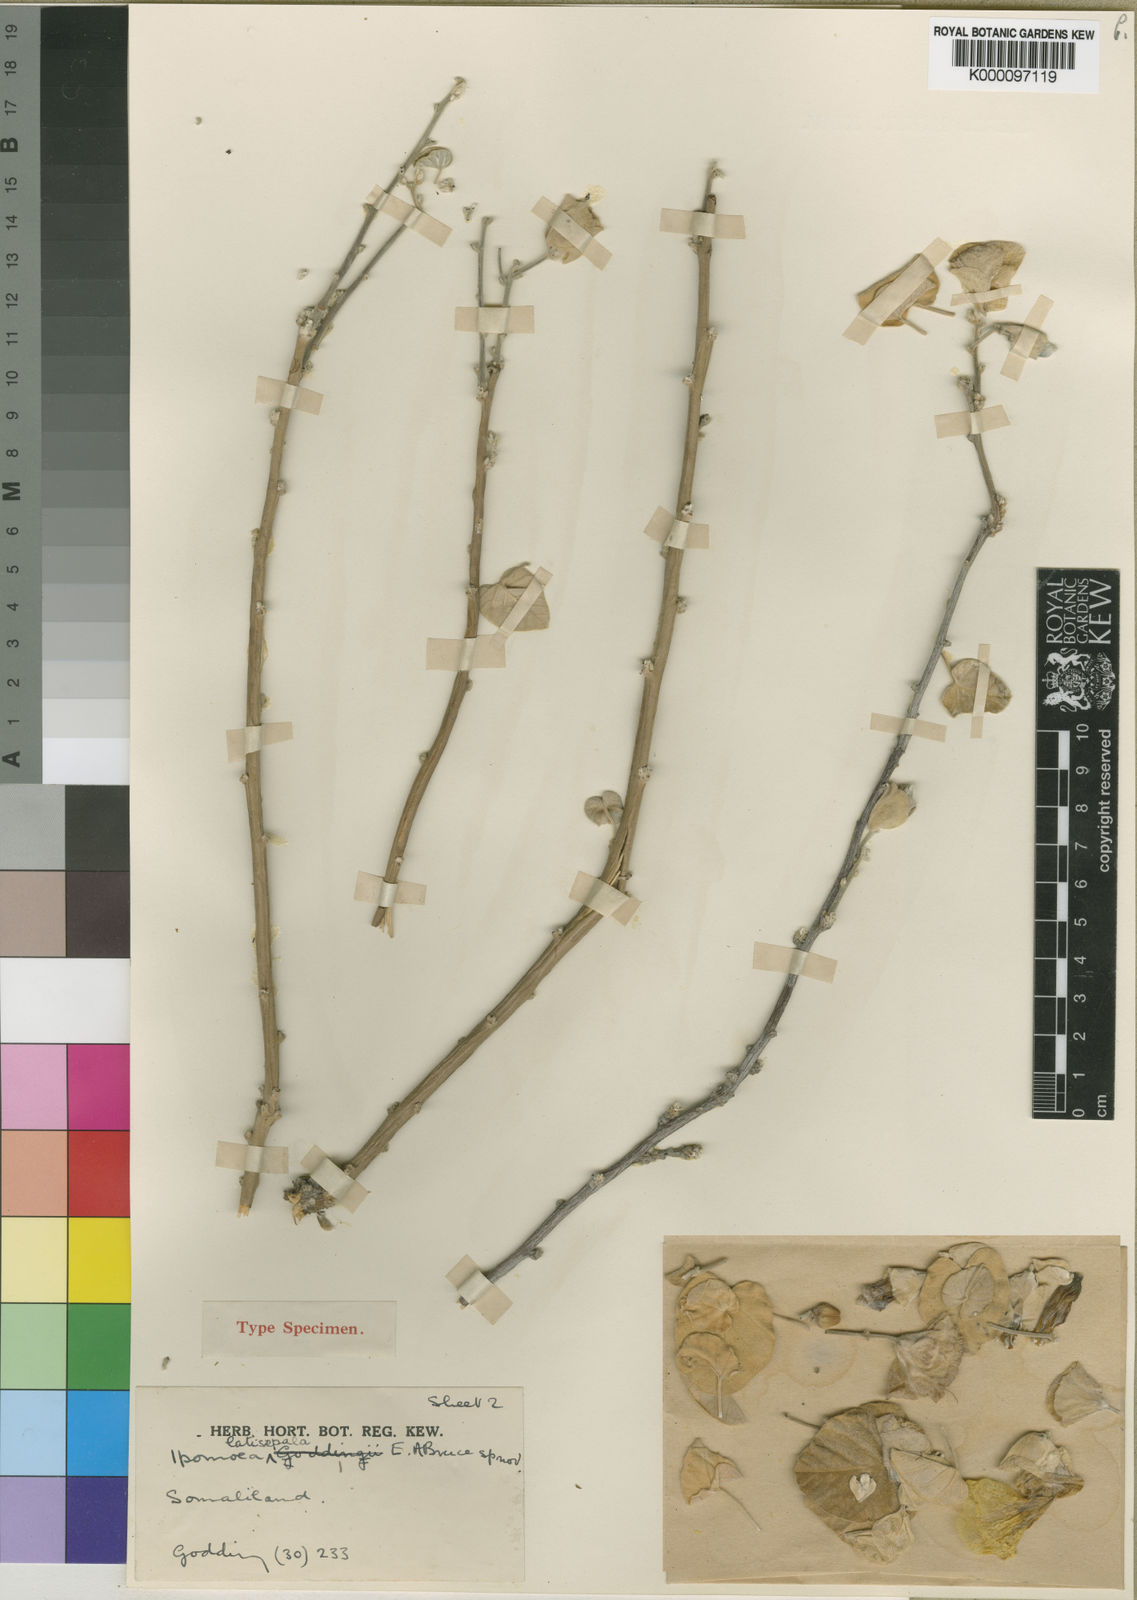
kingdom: Plantae
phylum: Tracheophyta
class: Magnoliopsida
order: Solanales
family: Convolvulaceae
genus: Ipomoea
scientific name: Ipomoea citrina
